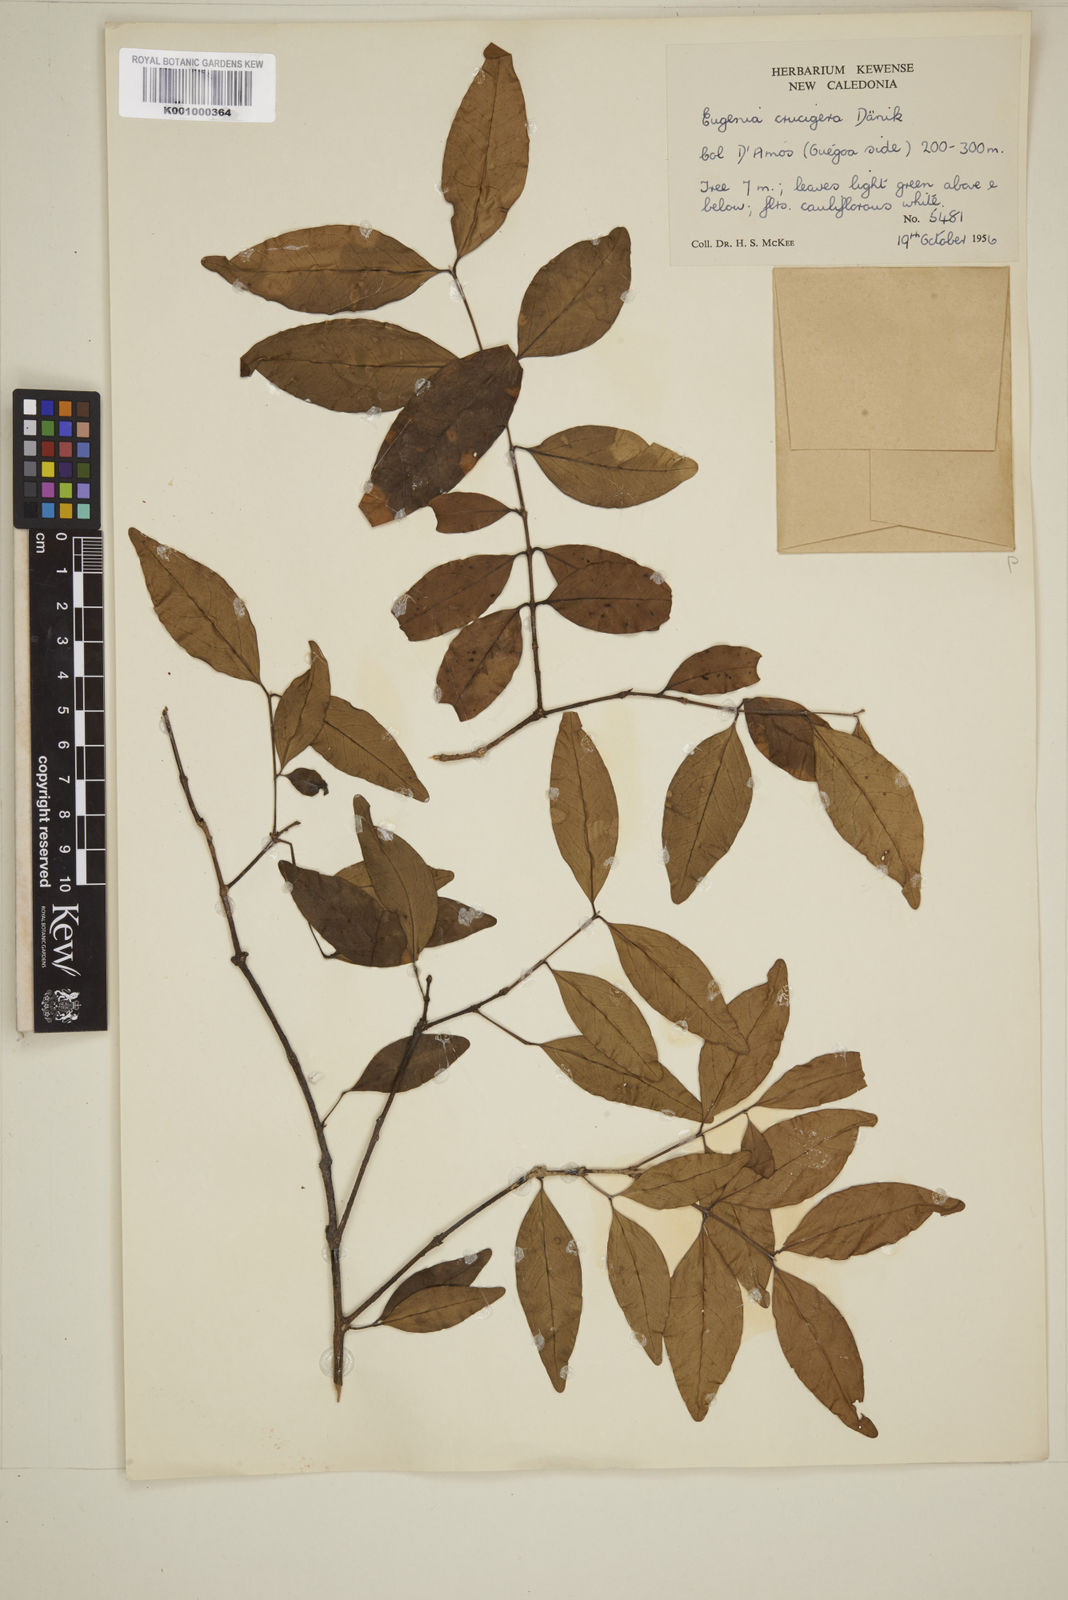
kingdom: Plantae
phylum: Tracheophyta
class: Magnoliopsida
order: Myrtales
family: Myrtaceae
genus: Eugenia
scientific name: Eugenia
